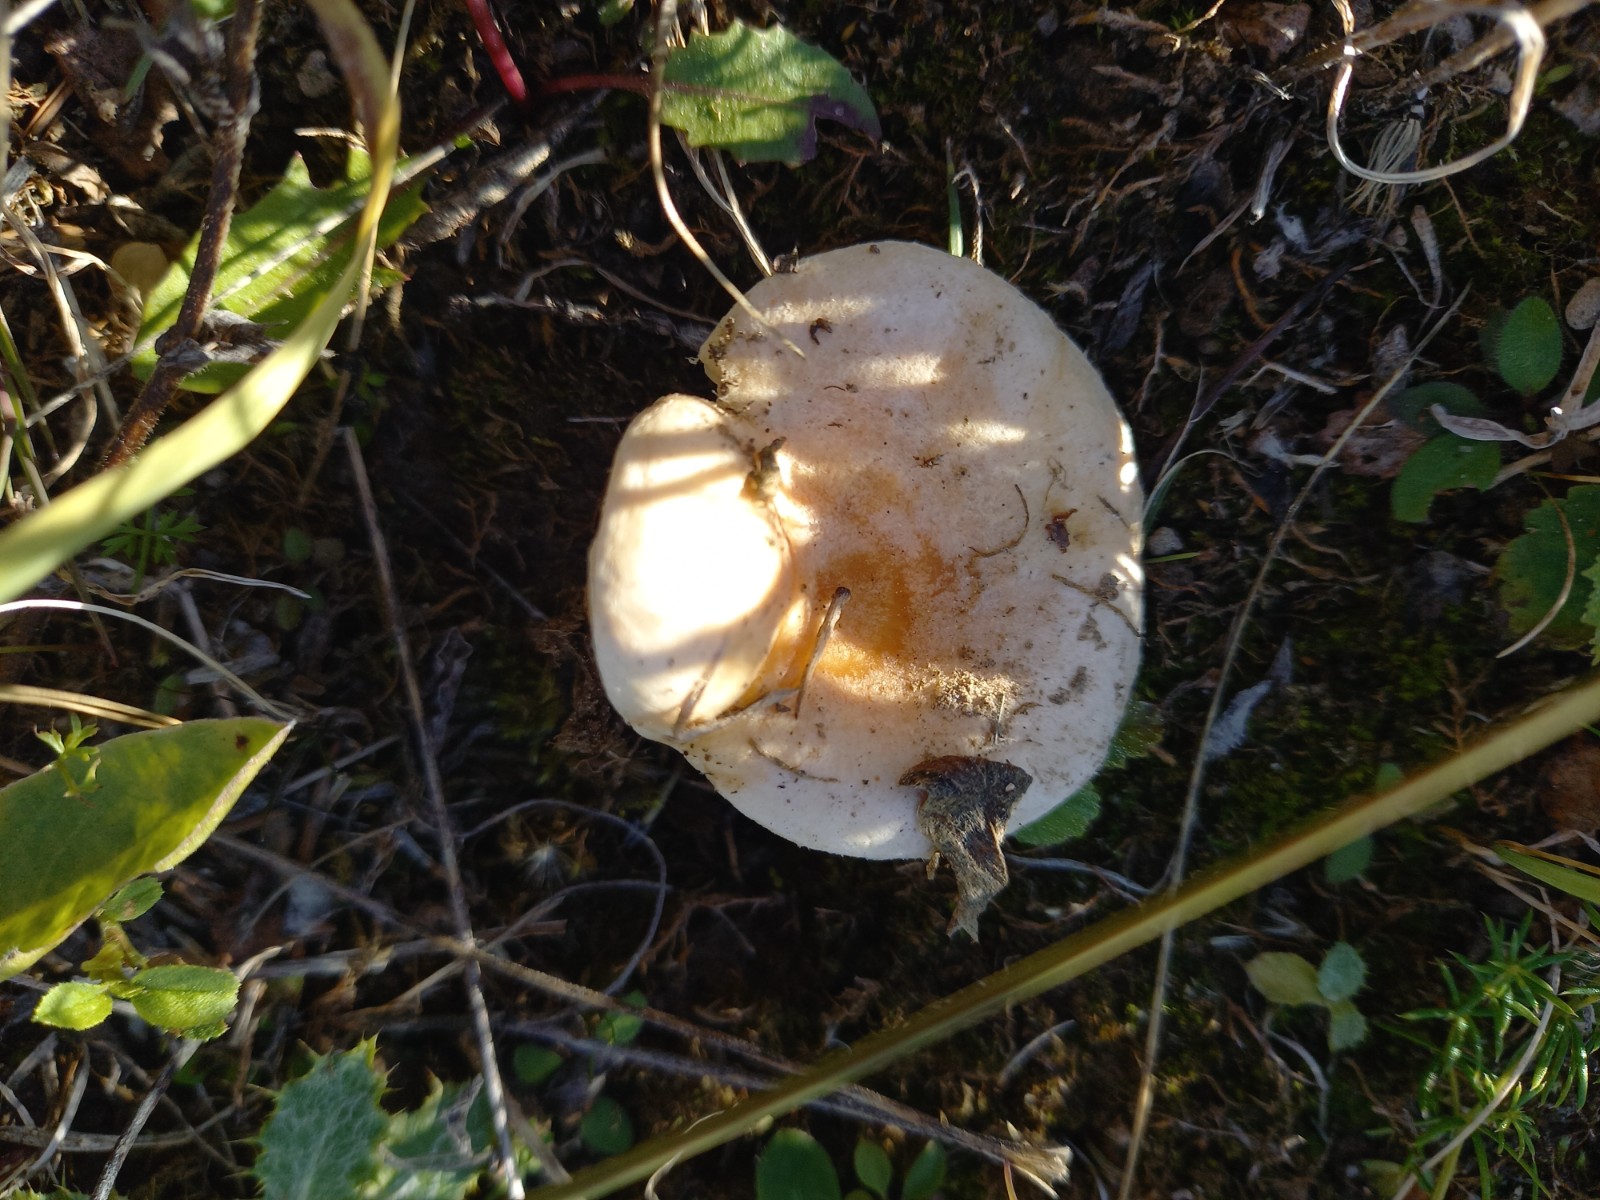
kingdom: Fungi
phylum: Basidiomycota
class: Agaricomycetes
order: Russulales
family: Russulaceae
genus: Lactarius
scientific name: Lactarius pubescens
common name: dunet mælkehat
